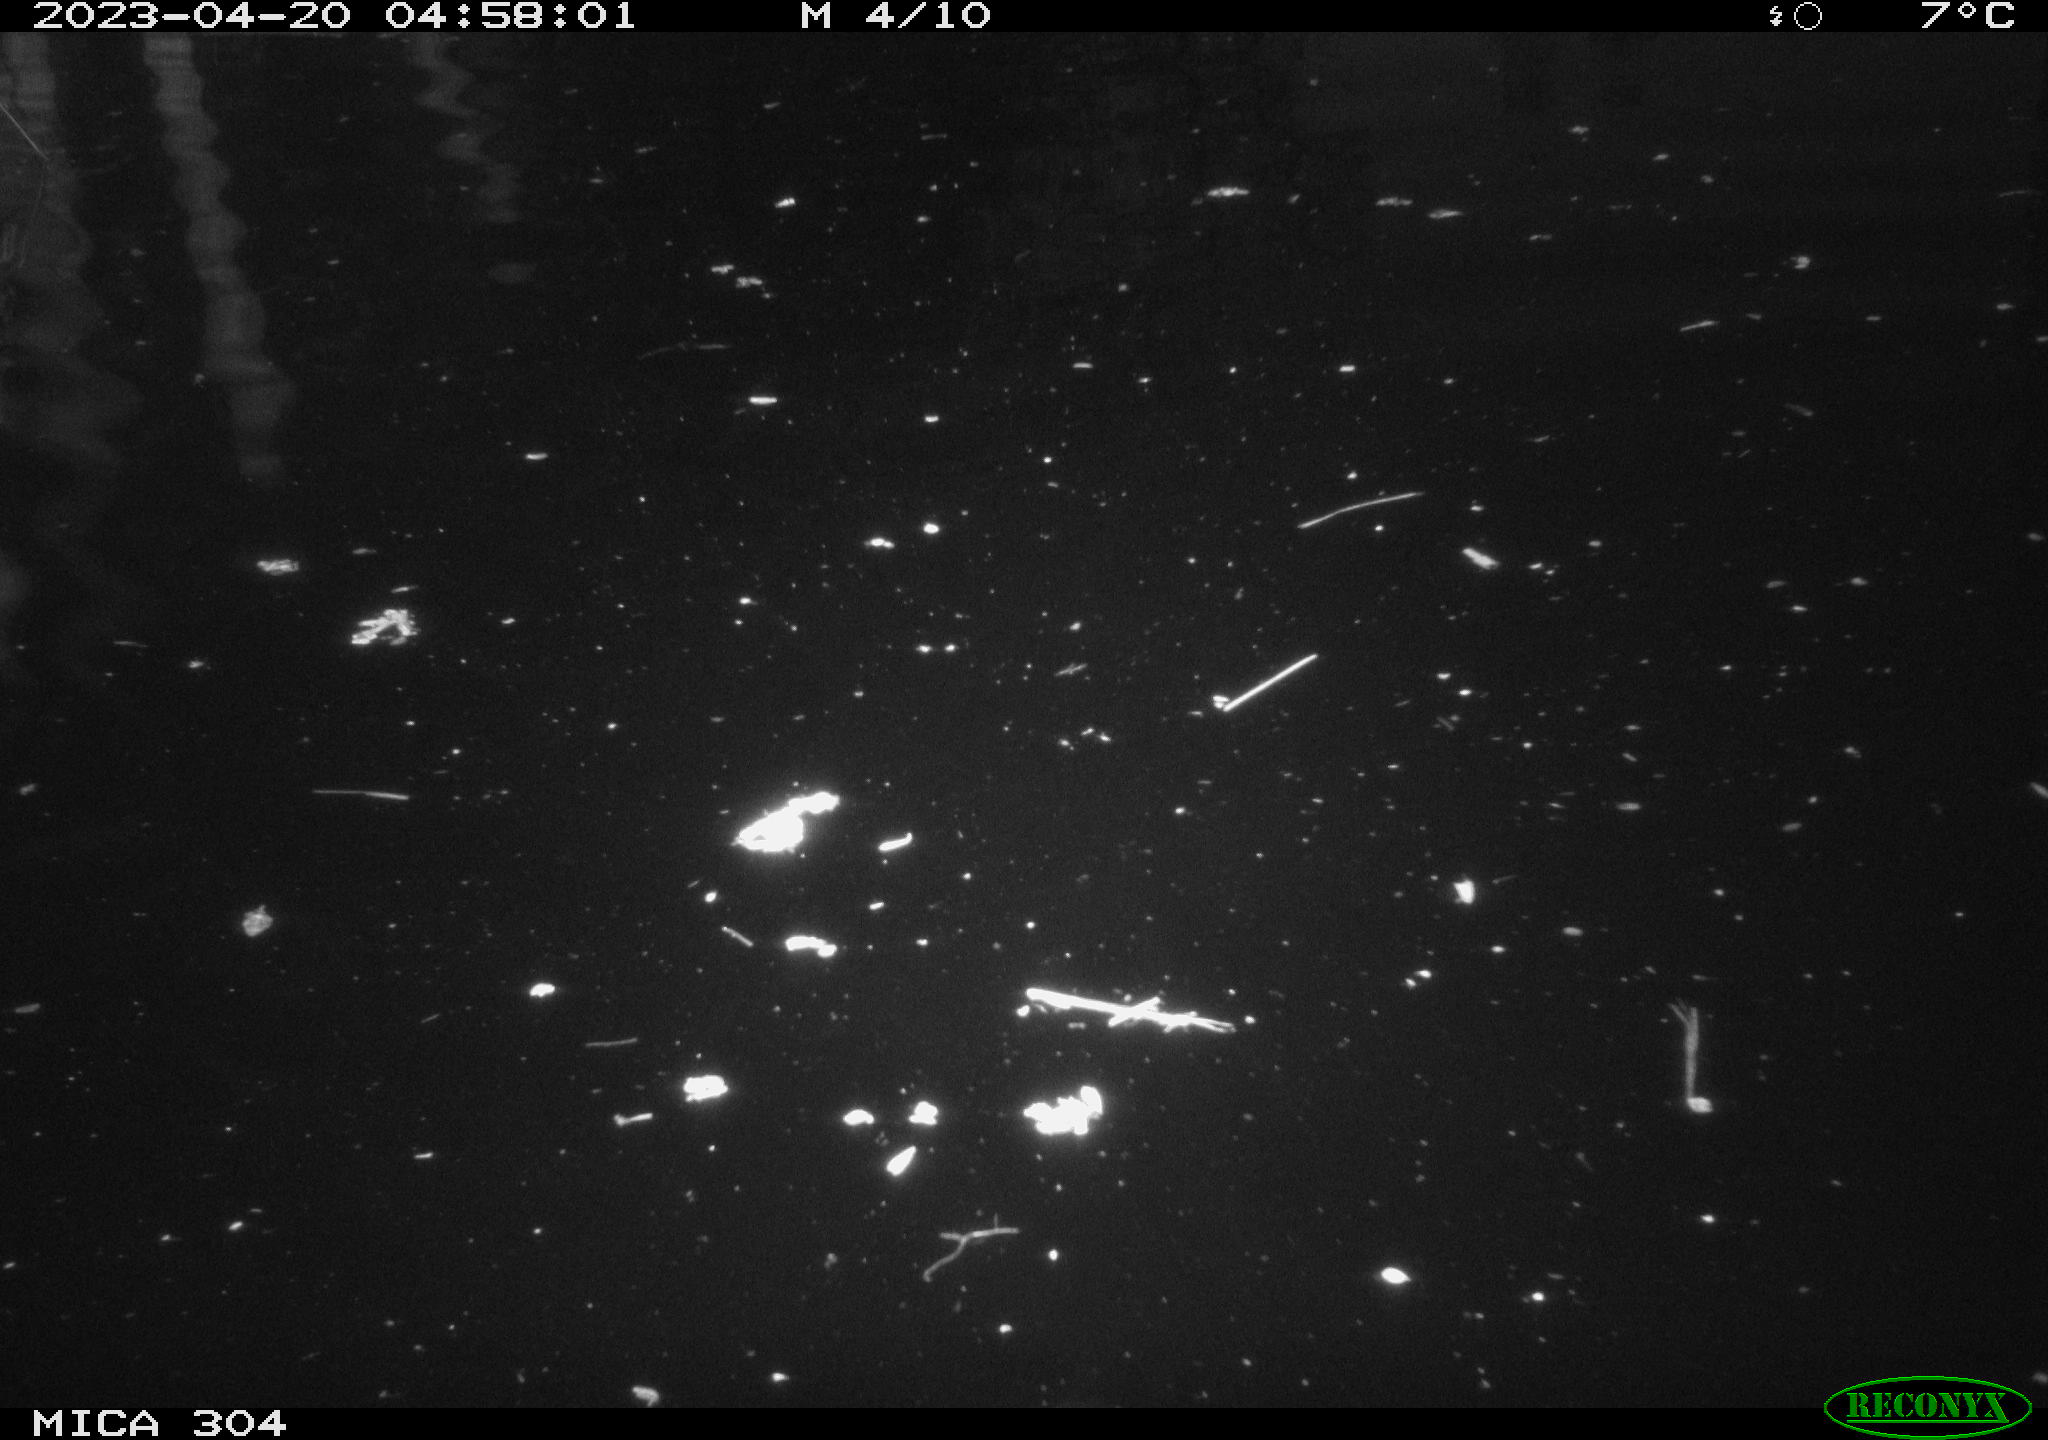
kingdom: Animalia
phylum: Chordata
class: Aves
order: Anseriformes
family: Anatidae
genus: Anas
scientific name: Anas
